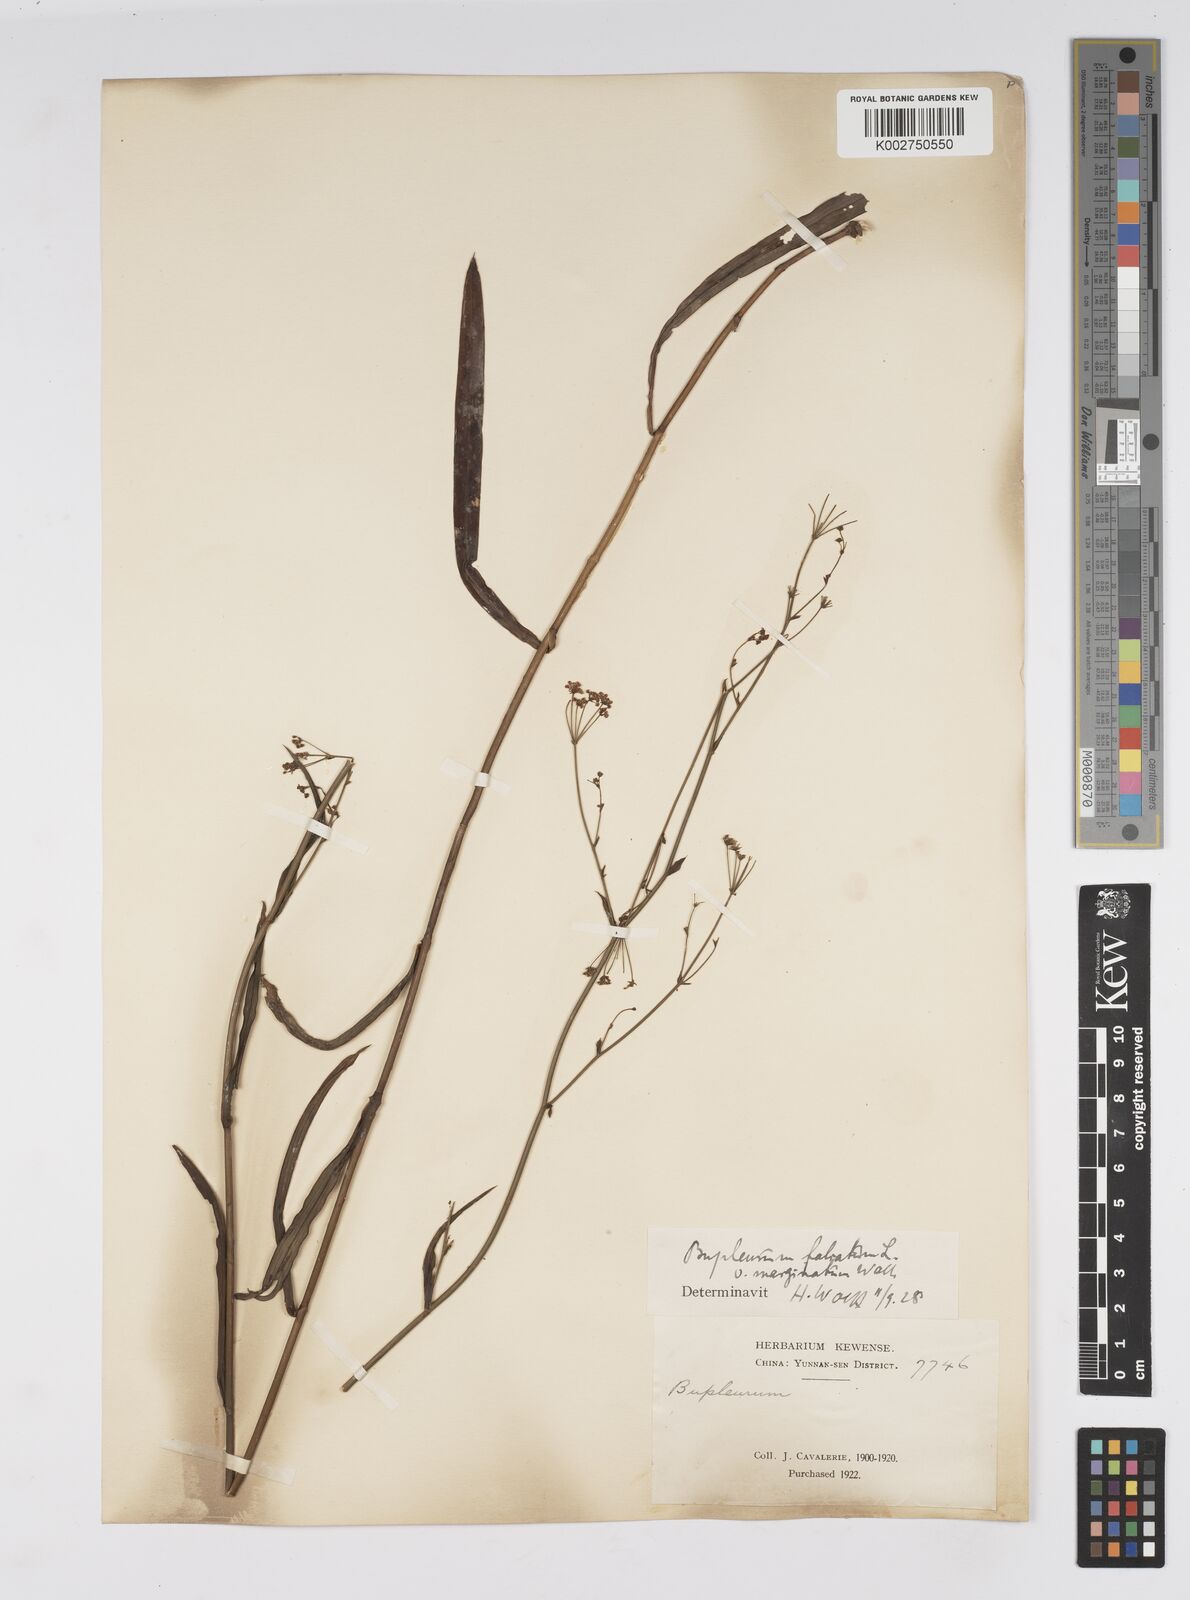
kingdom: Plantae
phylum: Tracheophyta
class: Magnoliopsida
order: Apiales
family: Apiaceae
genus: Bupleurum
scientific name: Bupleurum marginatum
